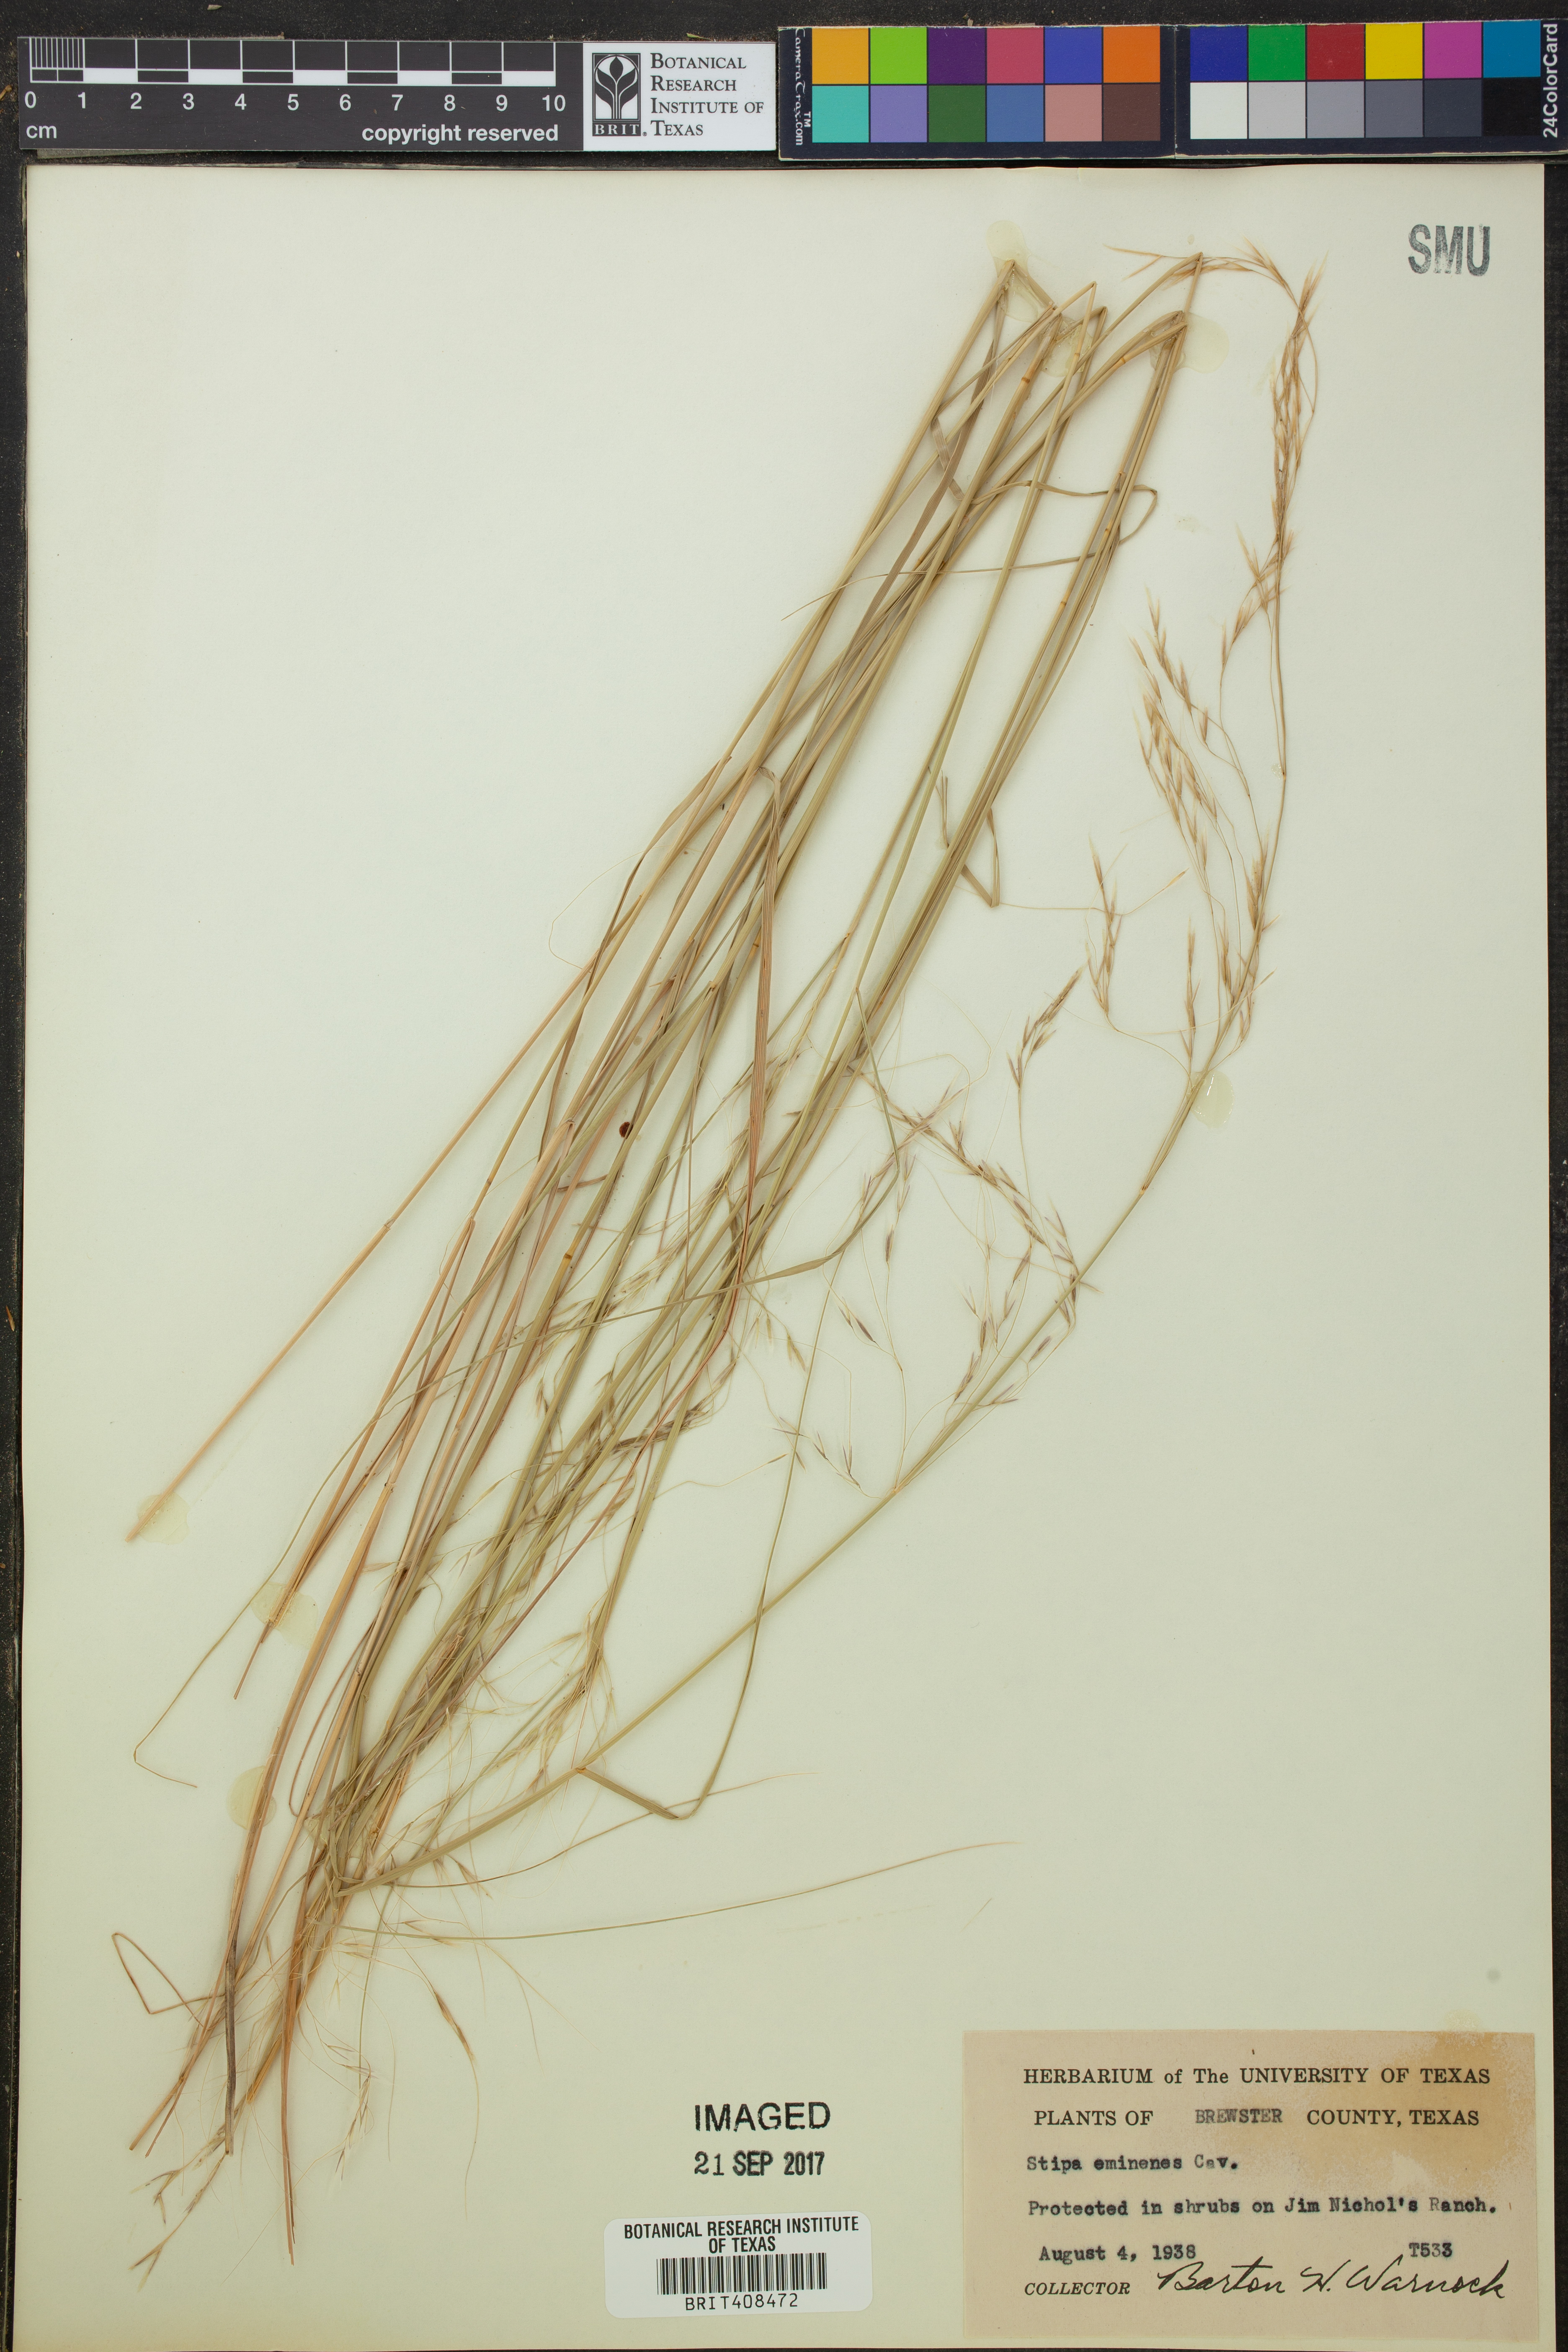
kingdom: Plantae
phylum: Tracheophyta
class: Liliopsida
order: Poales
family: Poaceae
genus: Pseudoeriocoma
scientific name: Pseudoeriocoma eminens
